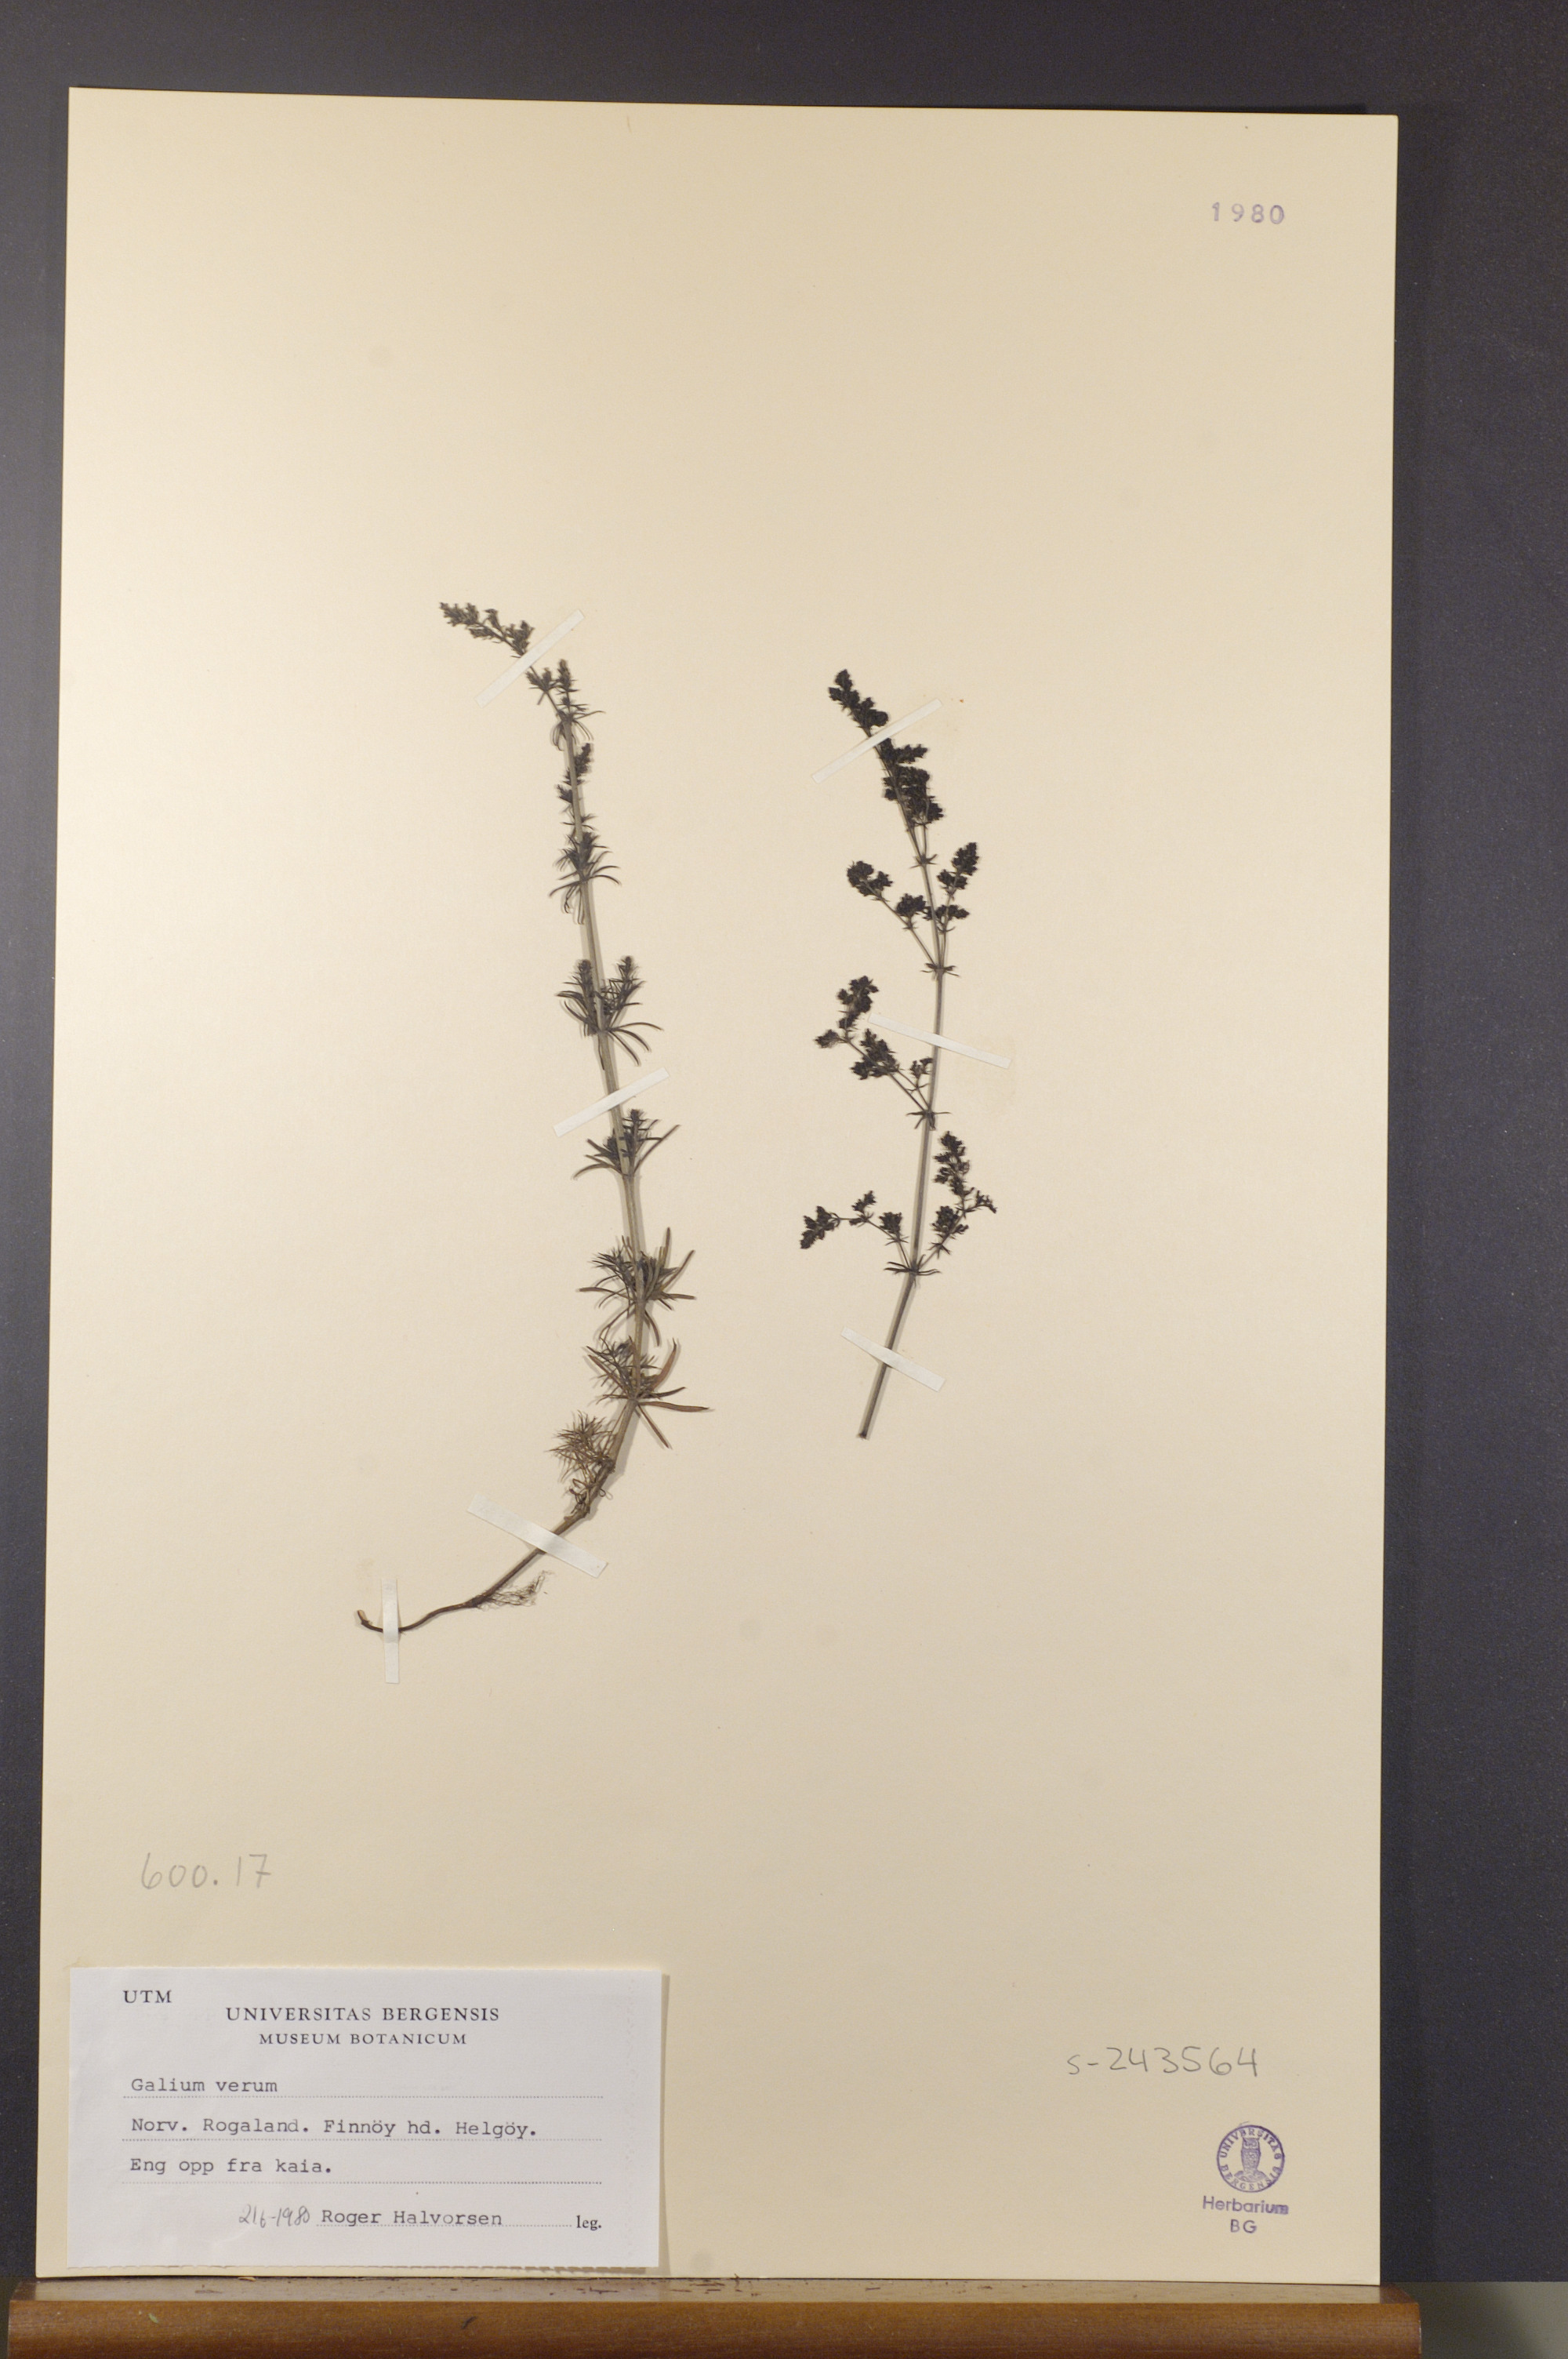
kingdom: Plantae
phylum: Tracheophyta
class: Magnoliopsida
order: Gentianales
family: Rubiaceae
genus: Galium
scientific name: Galium verum
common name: Lady's bedstraw
